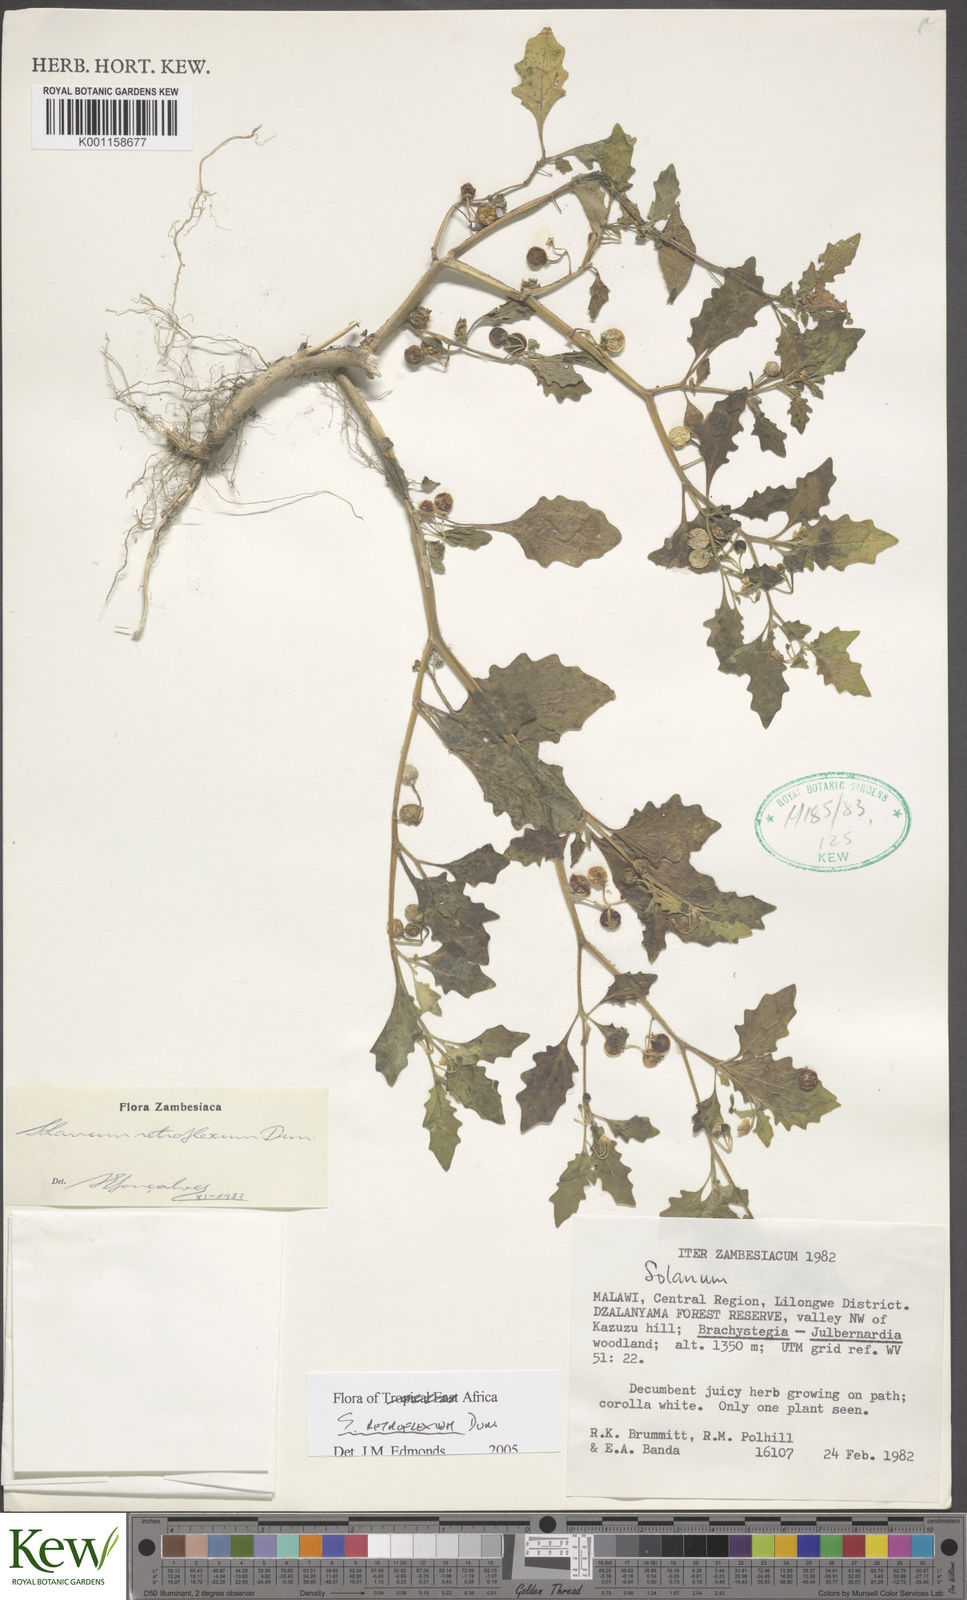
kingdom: Plantae
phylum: Tracheophyta
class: Magnoliopsida
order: Solanales
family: Solanaceae
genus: Solanum
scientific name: Solanum retroflexum
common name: Wonderberry
